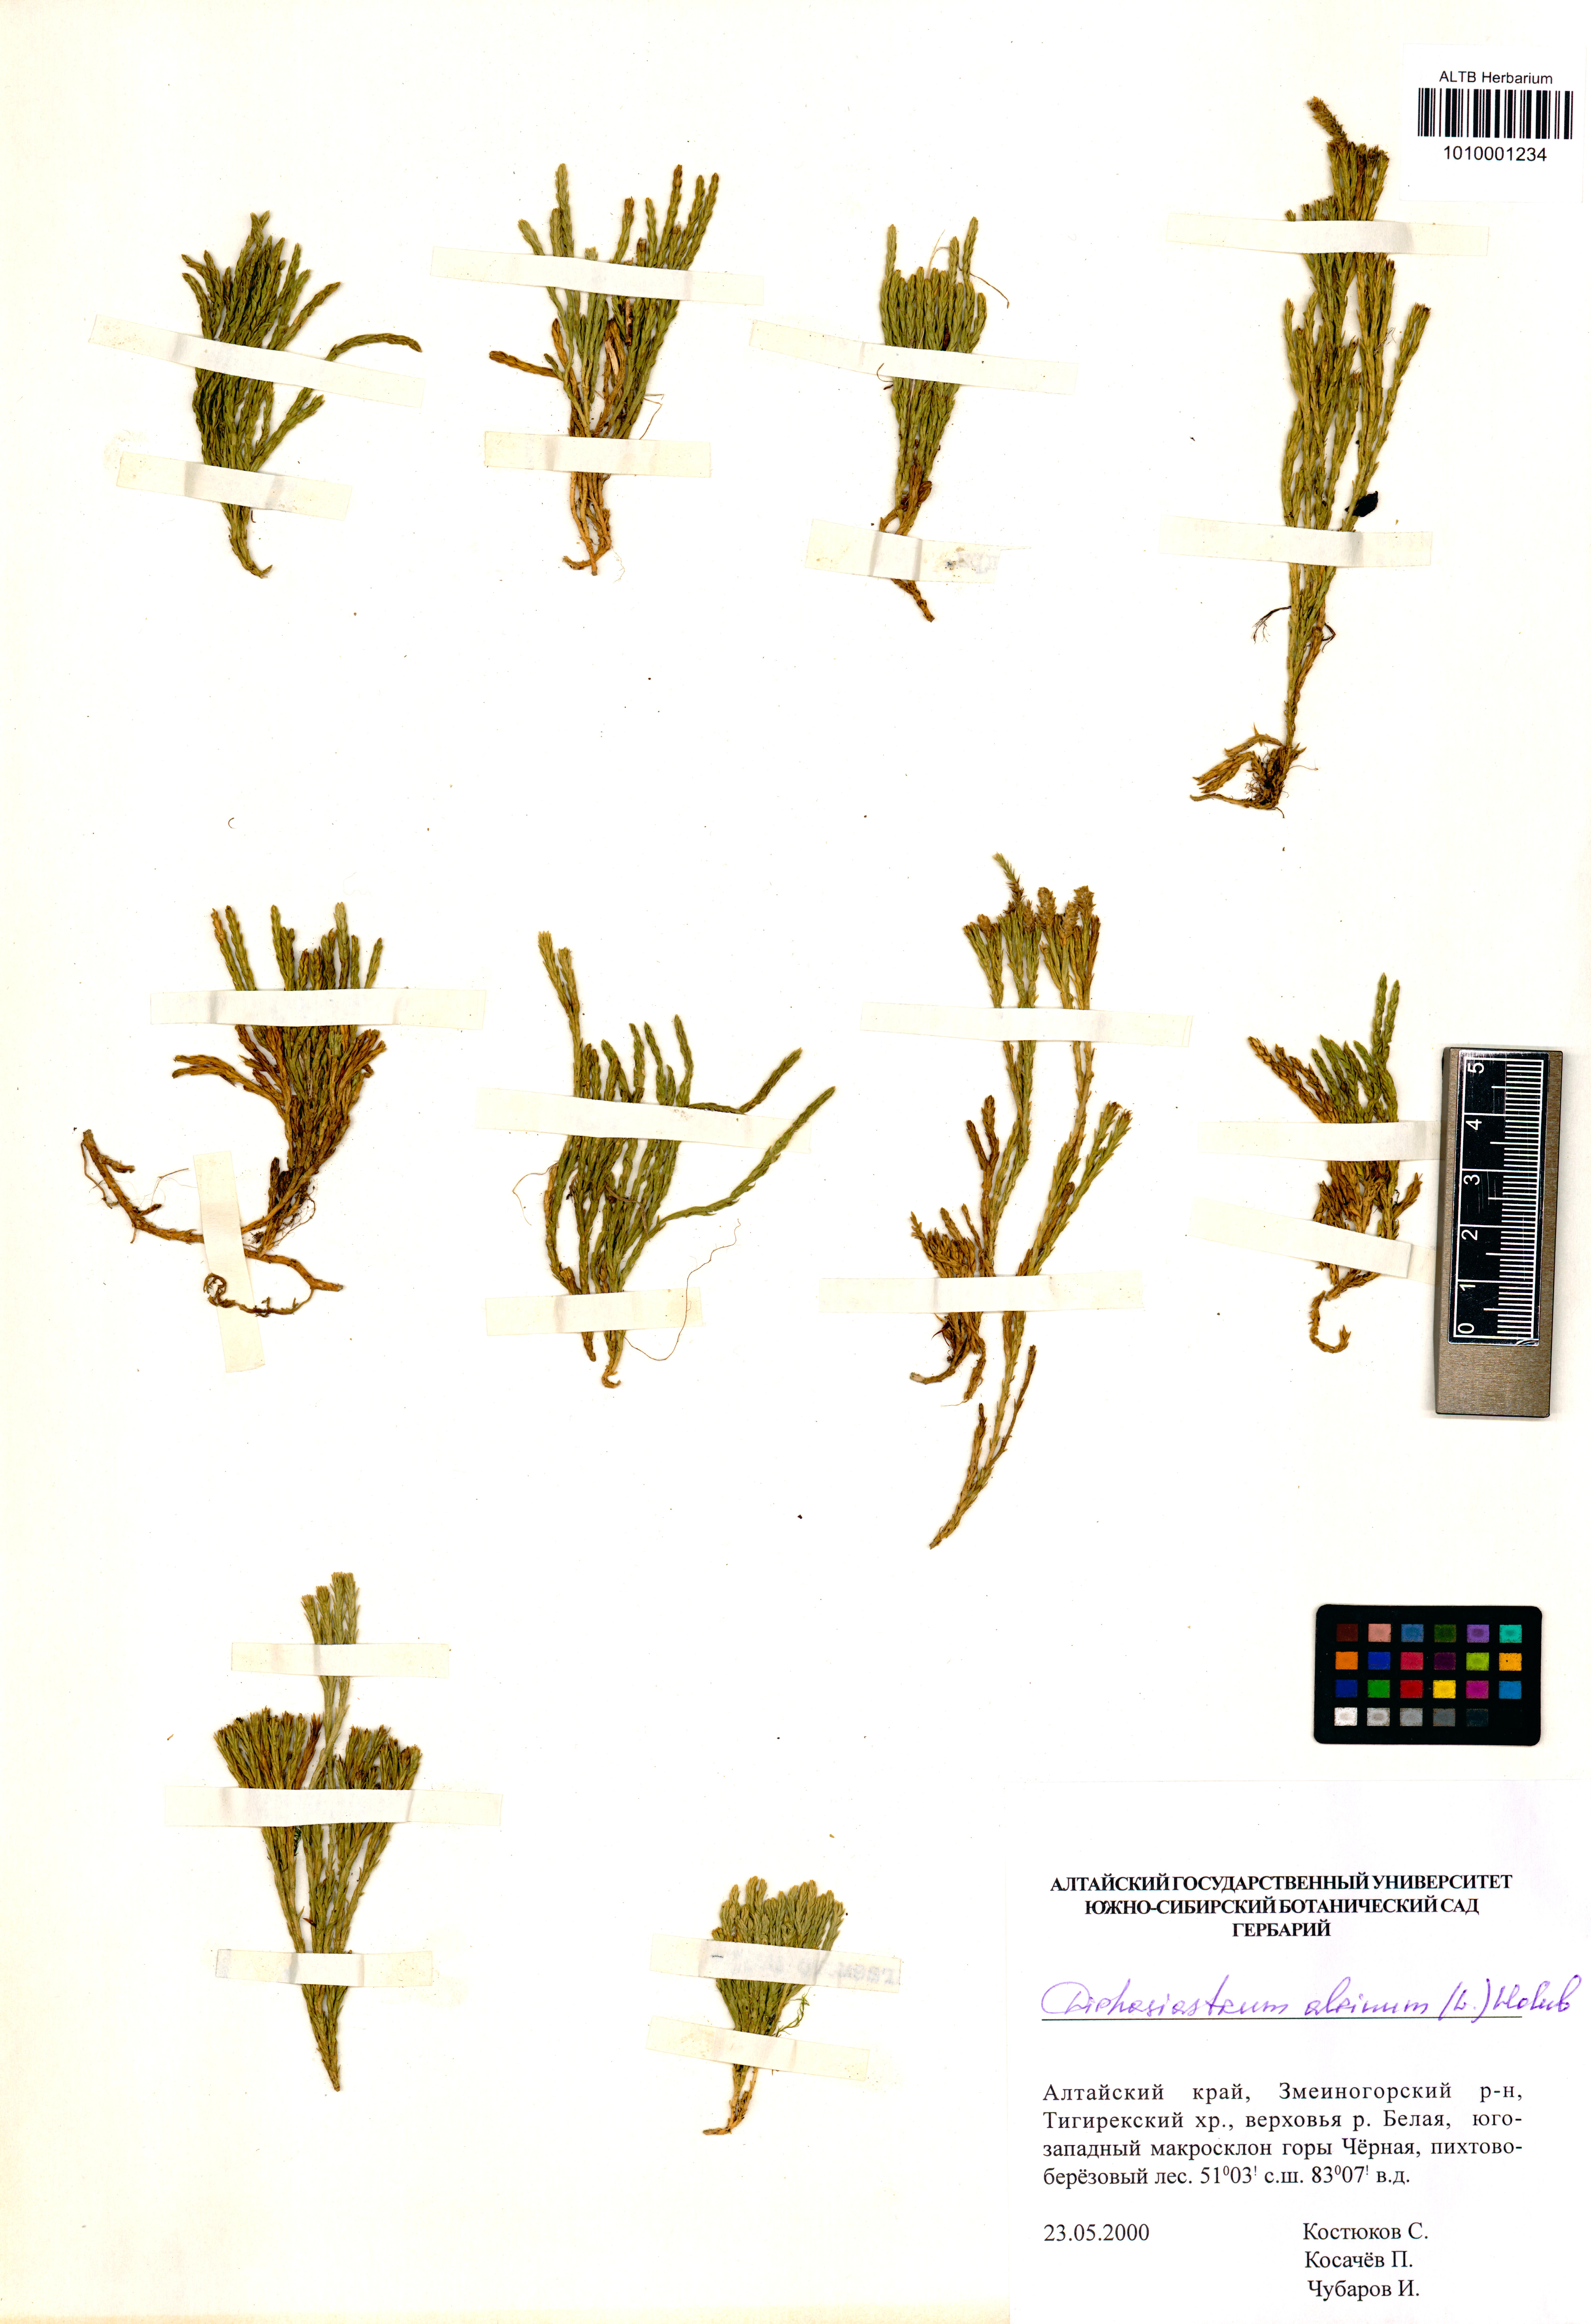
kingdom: Plantae
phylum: Tracheophyta
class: Lycopodiopsida
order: Lycopodiales
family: Lycopodiaceae
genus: Diphasiastrum
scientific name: Diphasiastrum alpinum
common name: Alpine clubmoss
